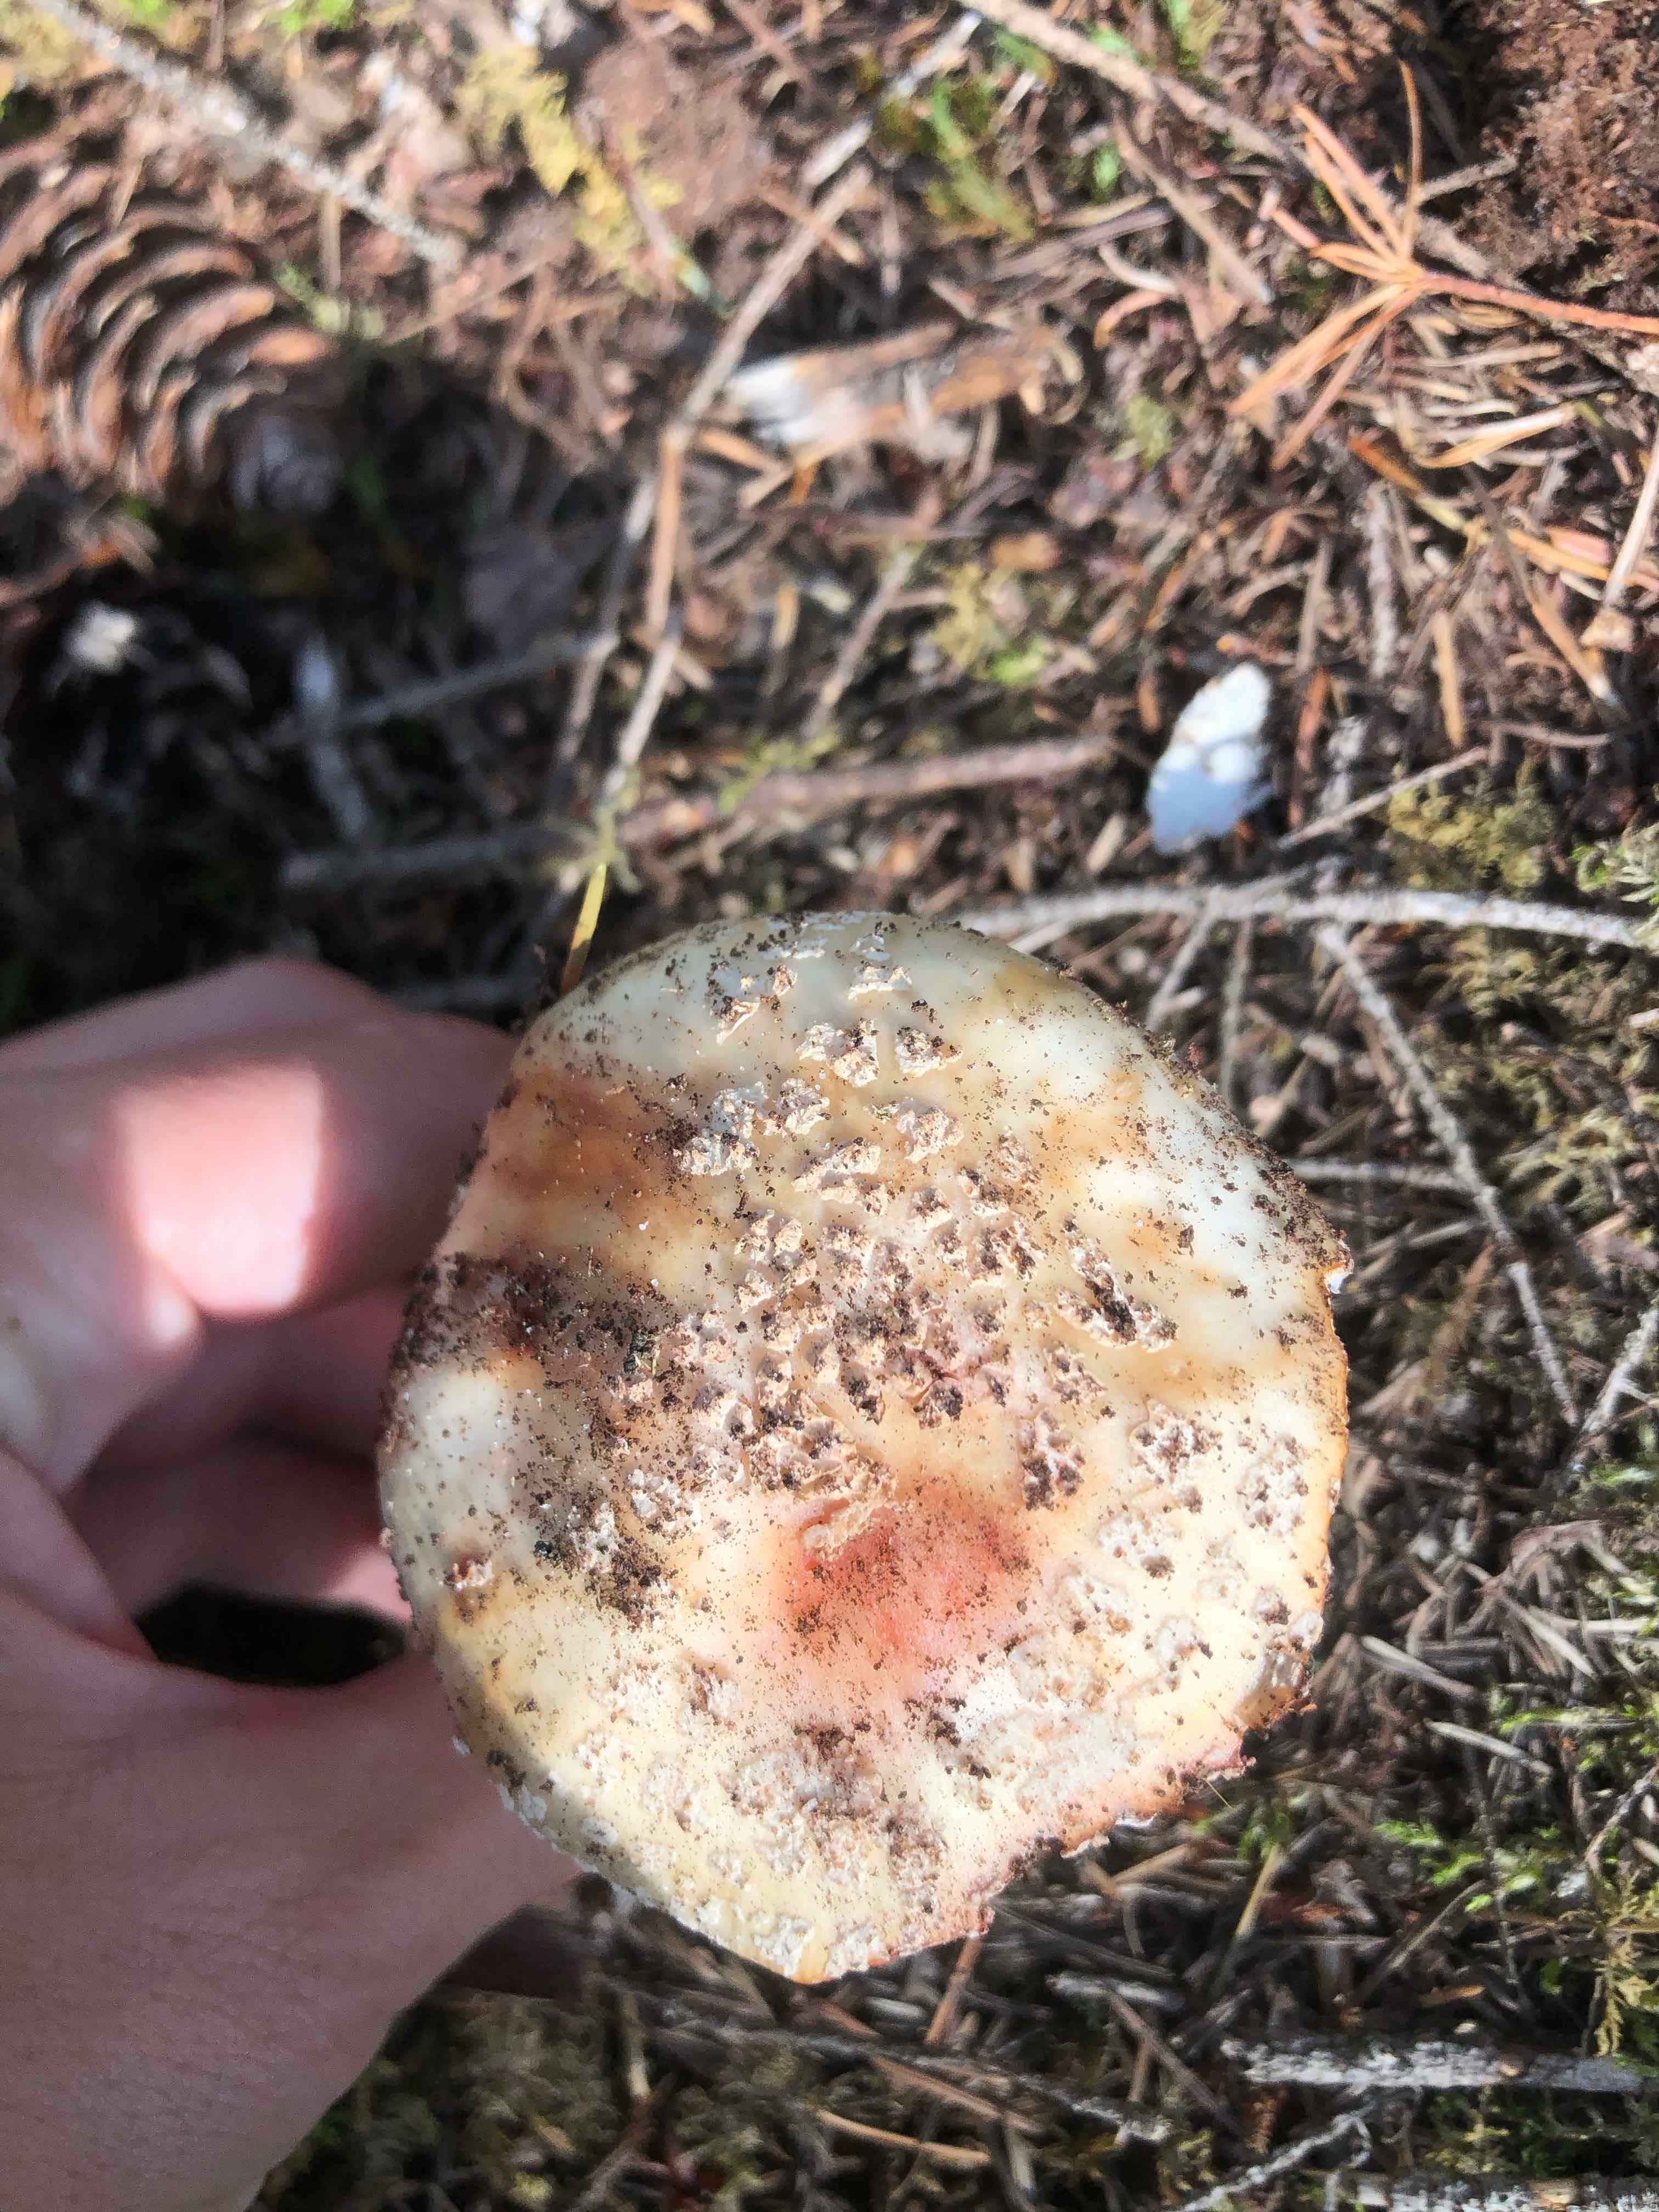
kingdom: Fungi
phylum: Basidiomycota
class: Agaricomycetes
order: Agaricales
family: Amanitaceae
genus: Amanita
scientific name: Amanita rubescens
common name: rødmende fluesvamp
